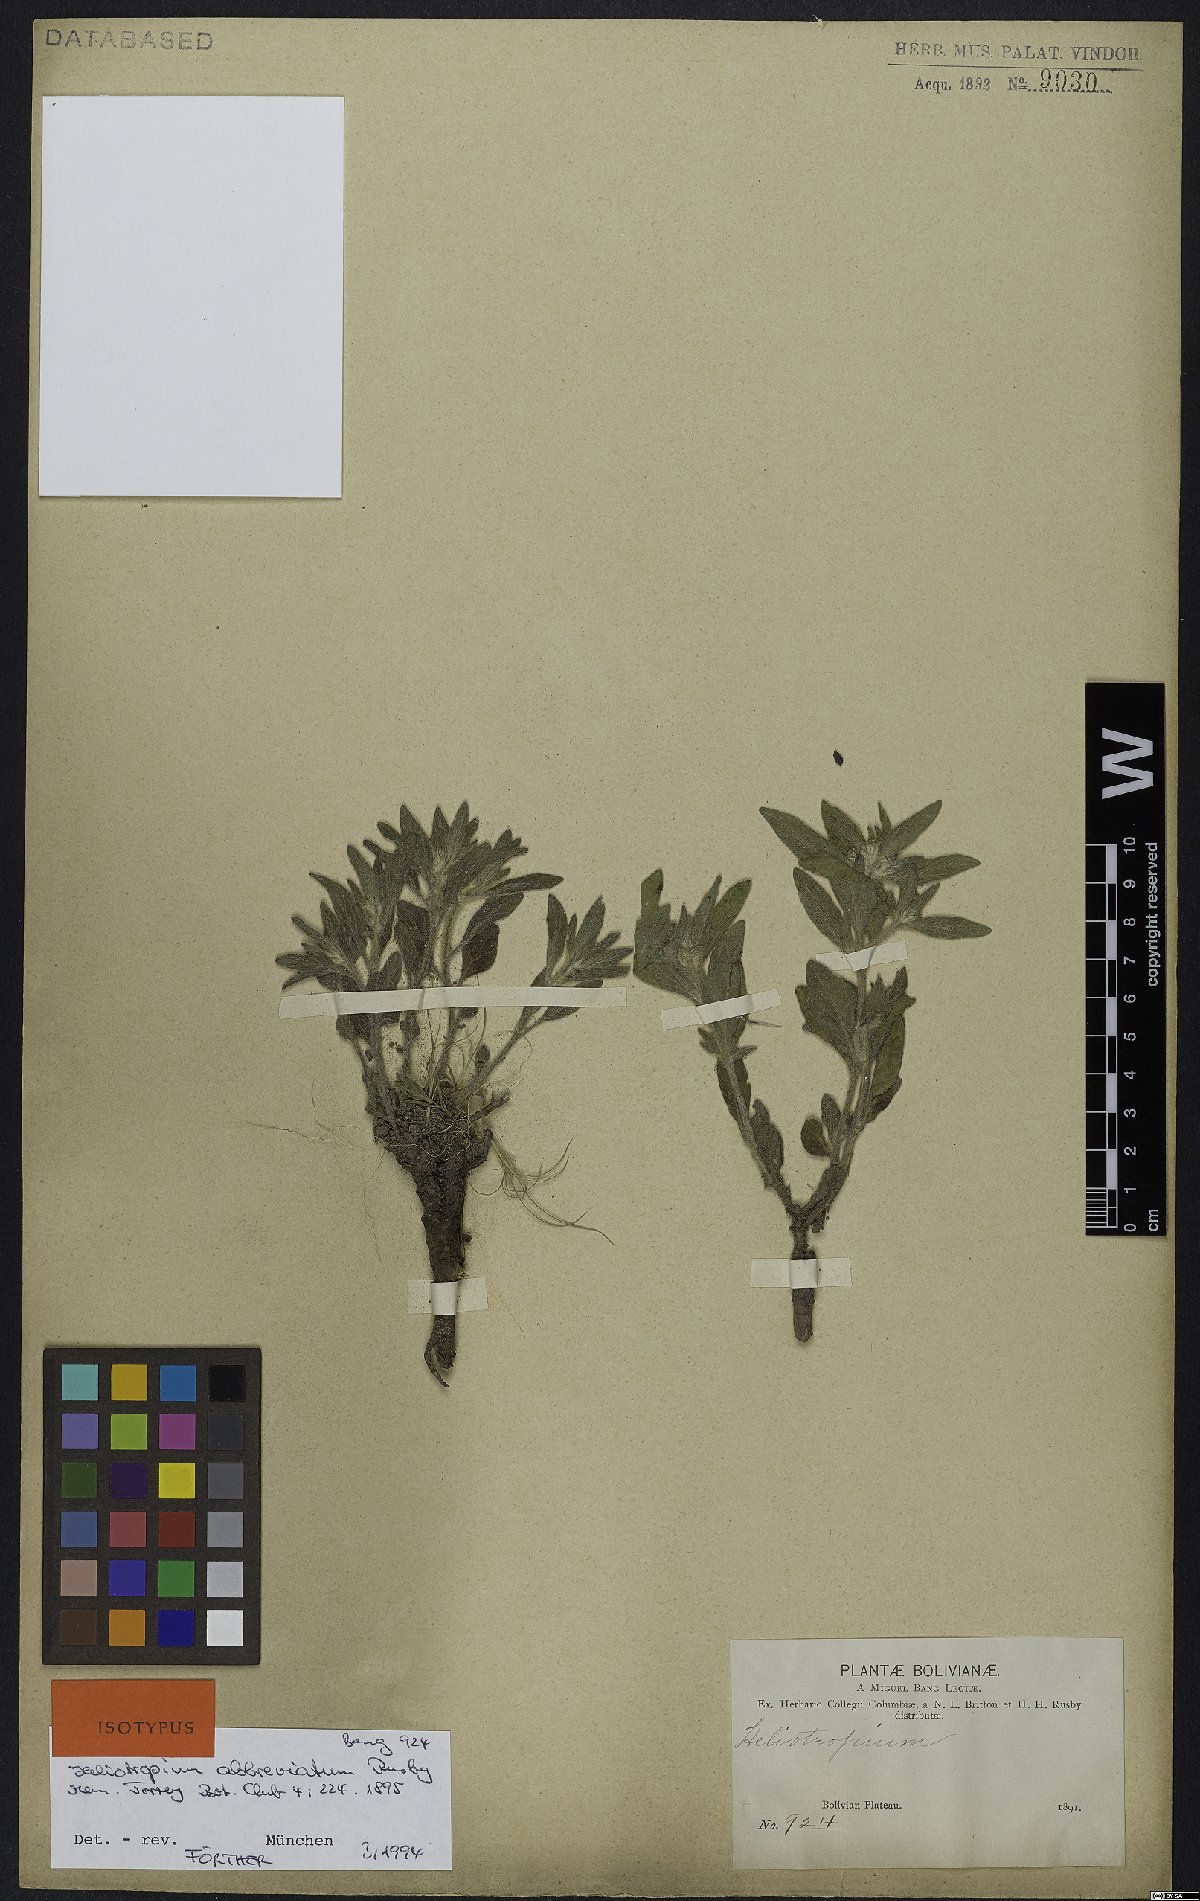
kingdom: Plantae
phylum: Tracheophyta
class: Magnoliopsida
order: Boraginales
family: Heliotropiaceae
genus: Heliotropium
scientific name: Heliotropium abbreviatum
